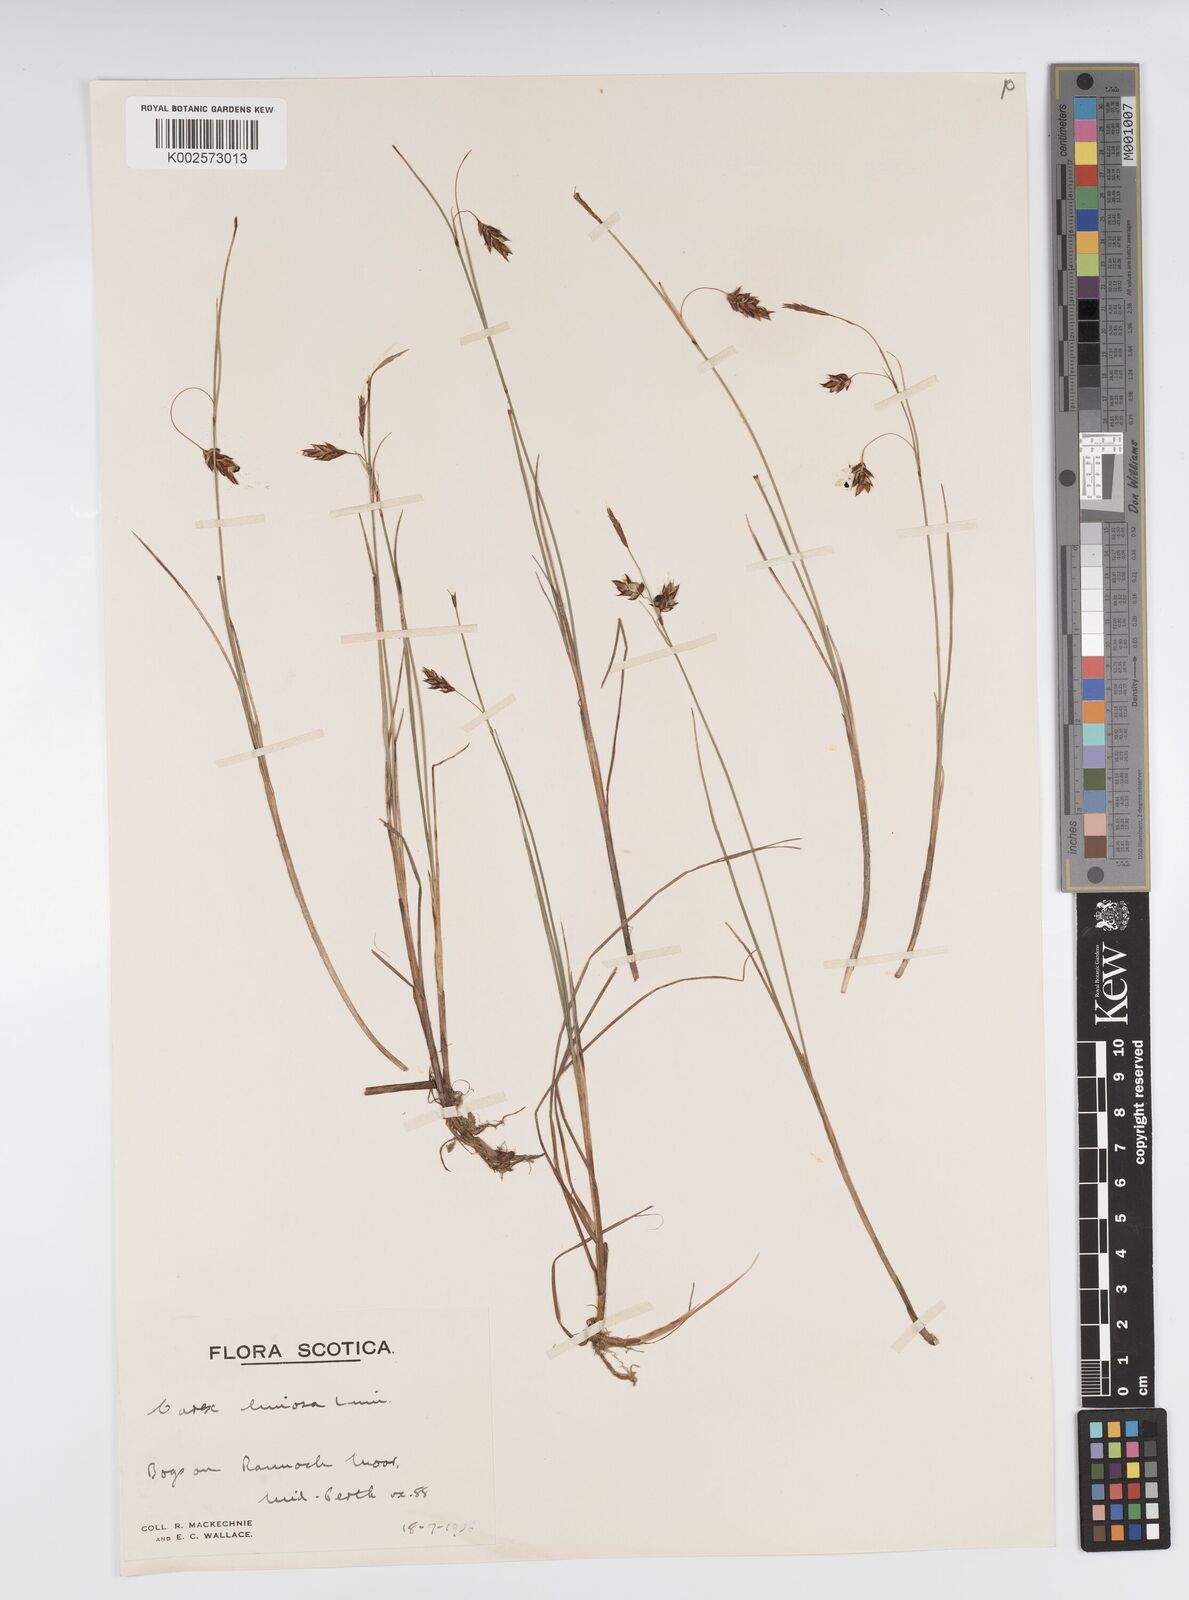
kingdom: Plantae
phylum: Tracheophyta
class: Liliopsida
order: Poales
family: Cyperaceae
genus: Carex
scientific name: Carex limosa
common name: Bog sedge
